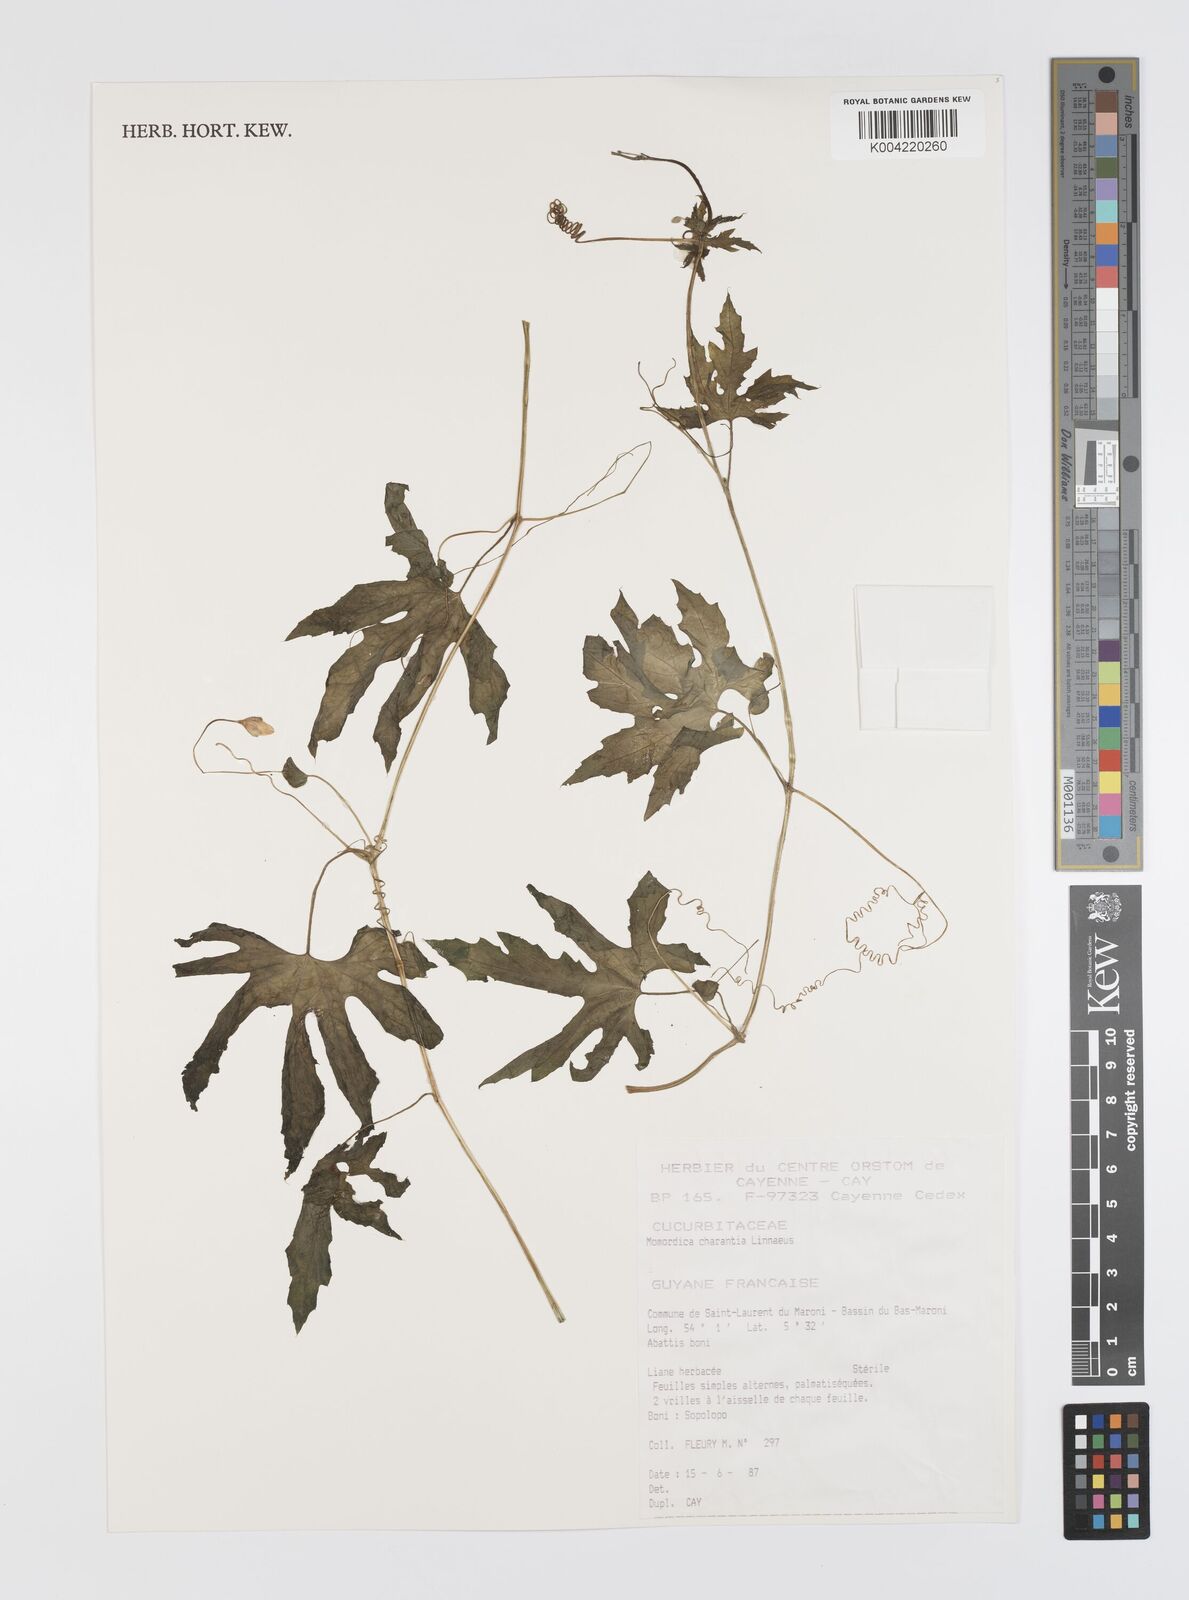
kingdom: Plantae
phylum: Tracheophyta
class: Magnoliopsida
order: Cucurbitales
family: Cucurbitaceae
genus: Momordica
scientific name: Momordica charantia
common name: Balsampear
